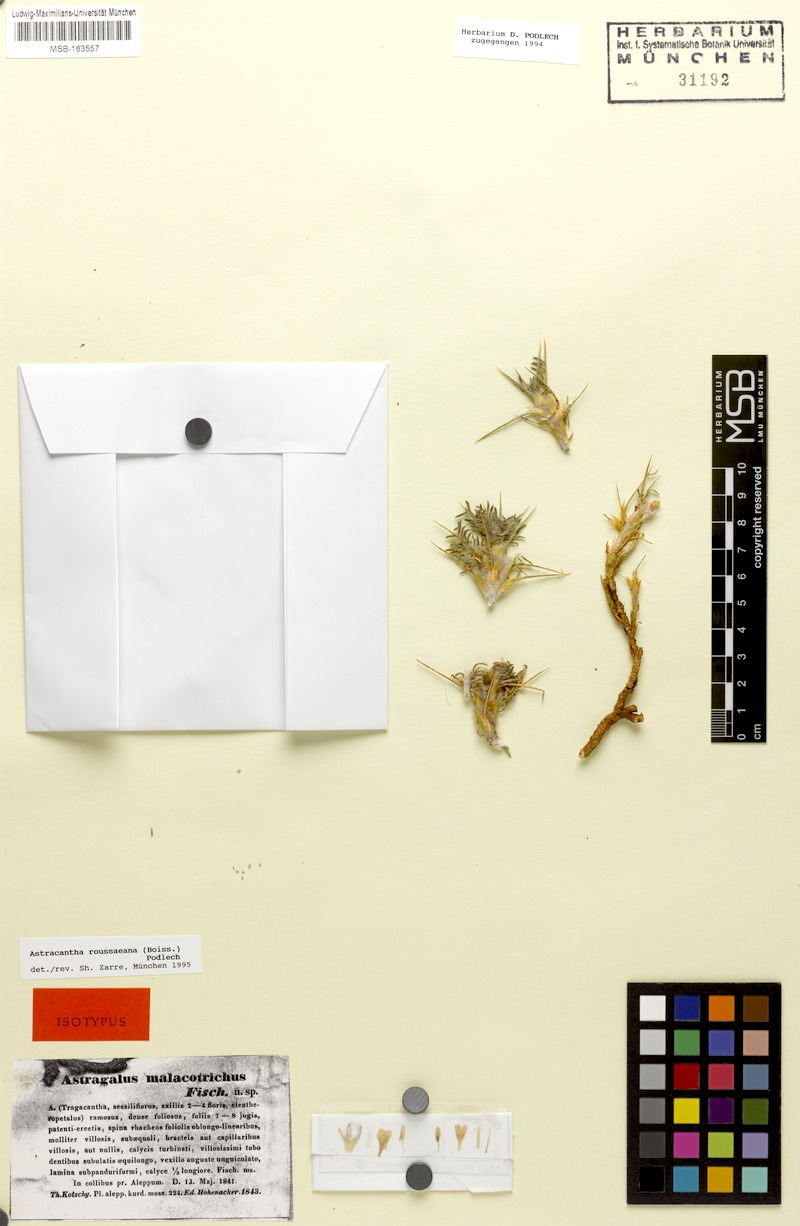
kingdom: Plantae
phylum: Tracheophyta
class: Magnoliopsida
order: Fabales
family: Fabaceae
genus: Astragalus
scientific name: Astragalus rousseanus
